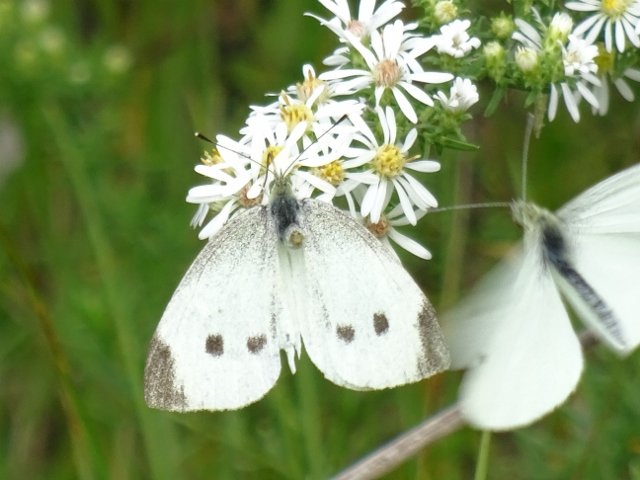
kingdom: Animalia
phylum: Arthropoda
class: Insecta
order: Lepidoptera
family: Pieridae
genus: Pieris
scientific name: Pieris rapae
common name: Cabbage White
